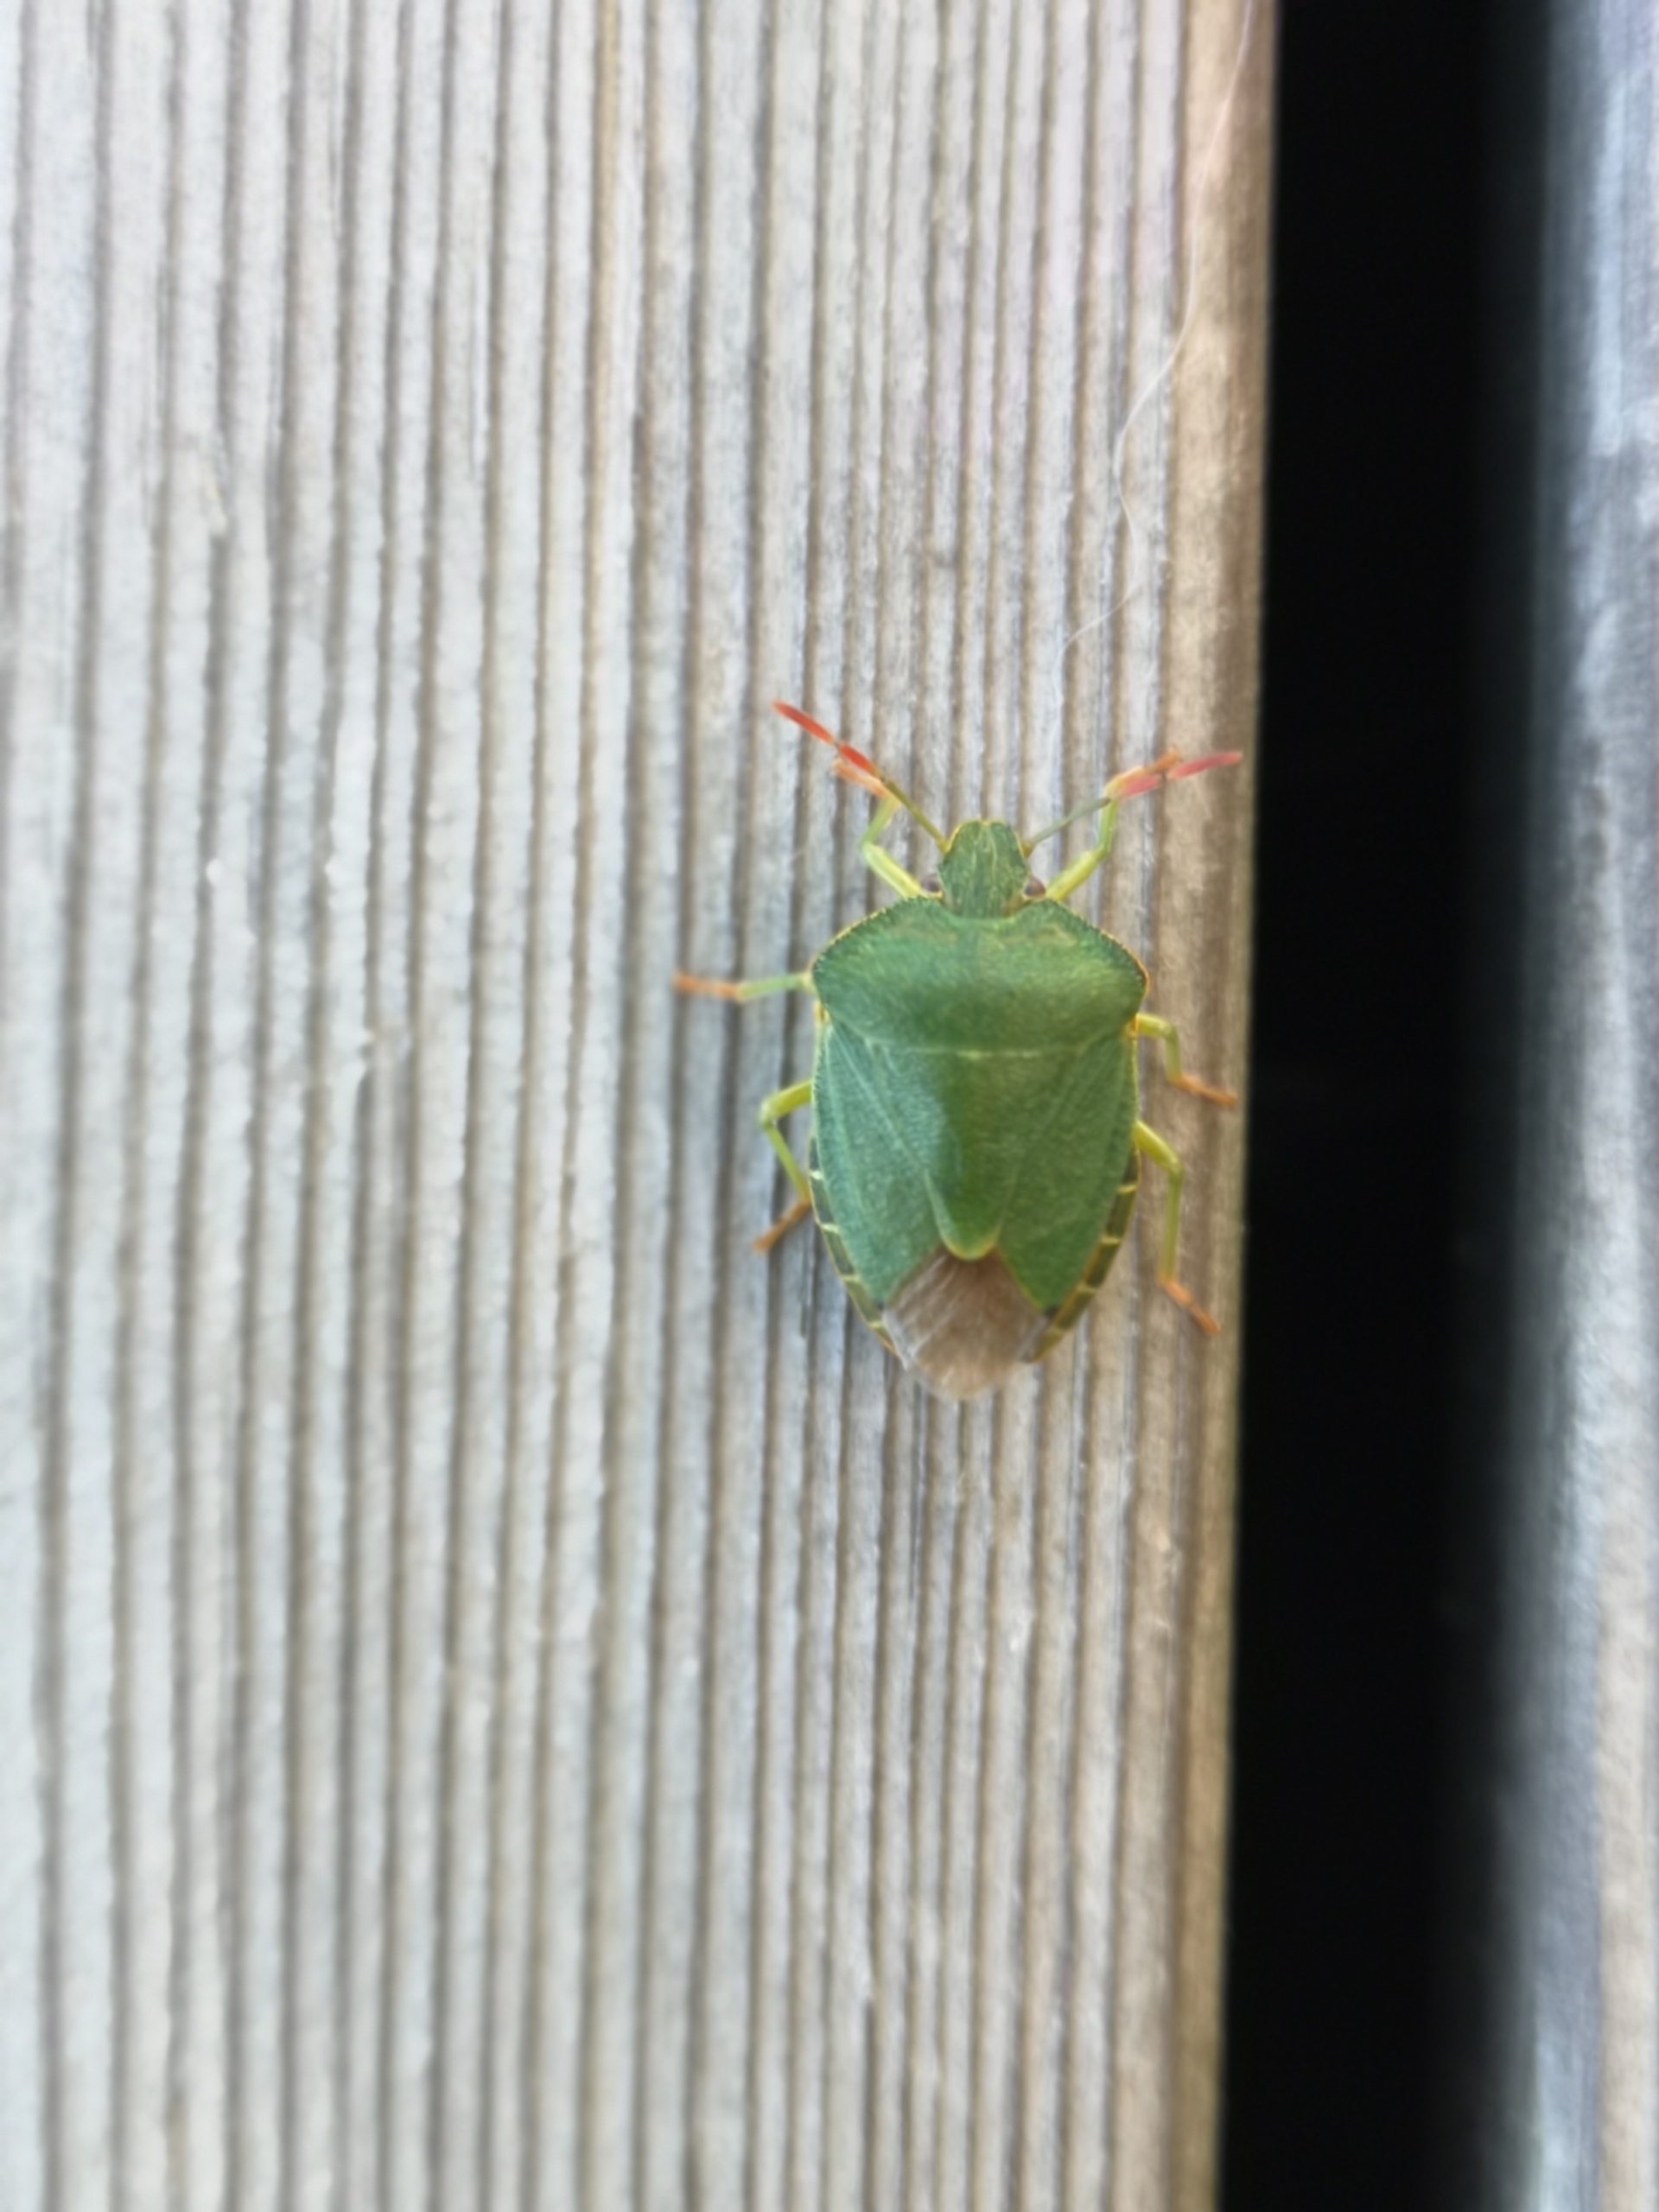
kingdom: Animalia
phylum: Arthropoda
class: Insecta
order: Hemiptera
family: Pentatomidae
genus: Palomena
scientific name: Palomena prasina
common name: Grøn bredtæge
